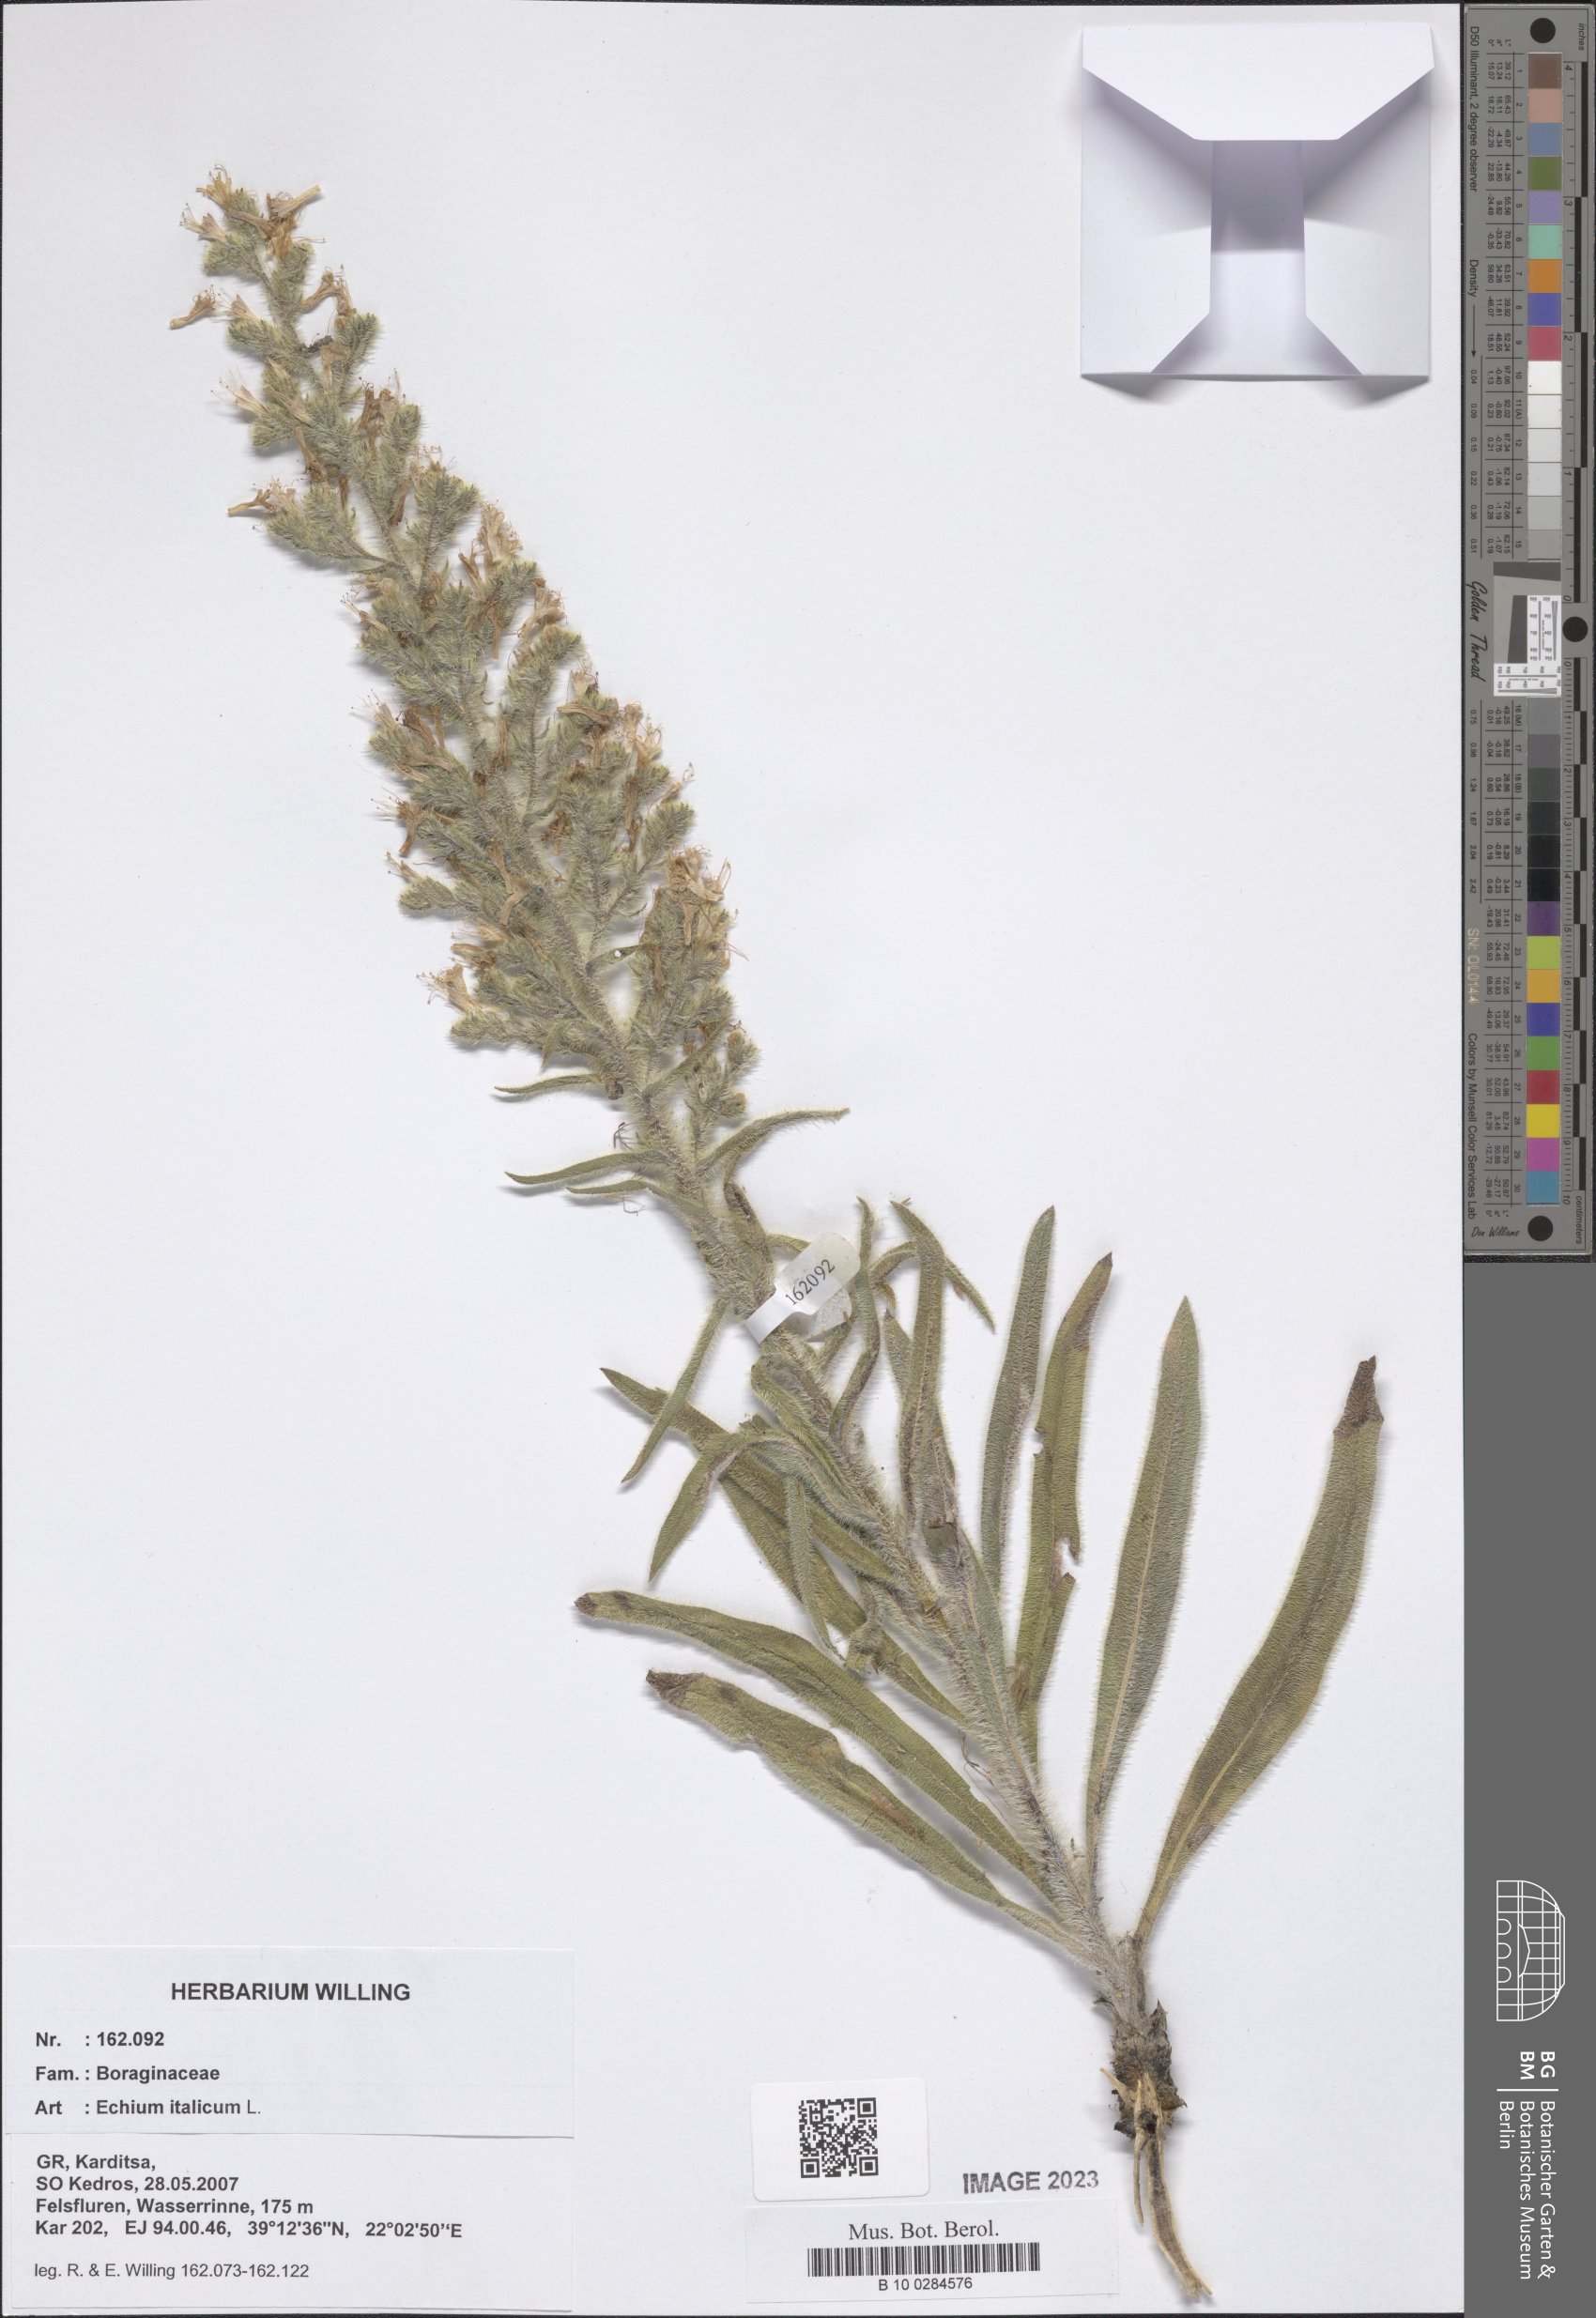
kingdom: Plantae
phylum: Tracheophyta
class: Magnoliopsida
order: Boraginales
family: Boraginaceae
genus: Echium
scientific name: Echium italicum
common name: Italian viper's bugloss
